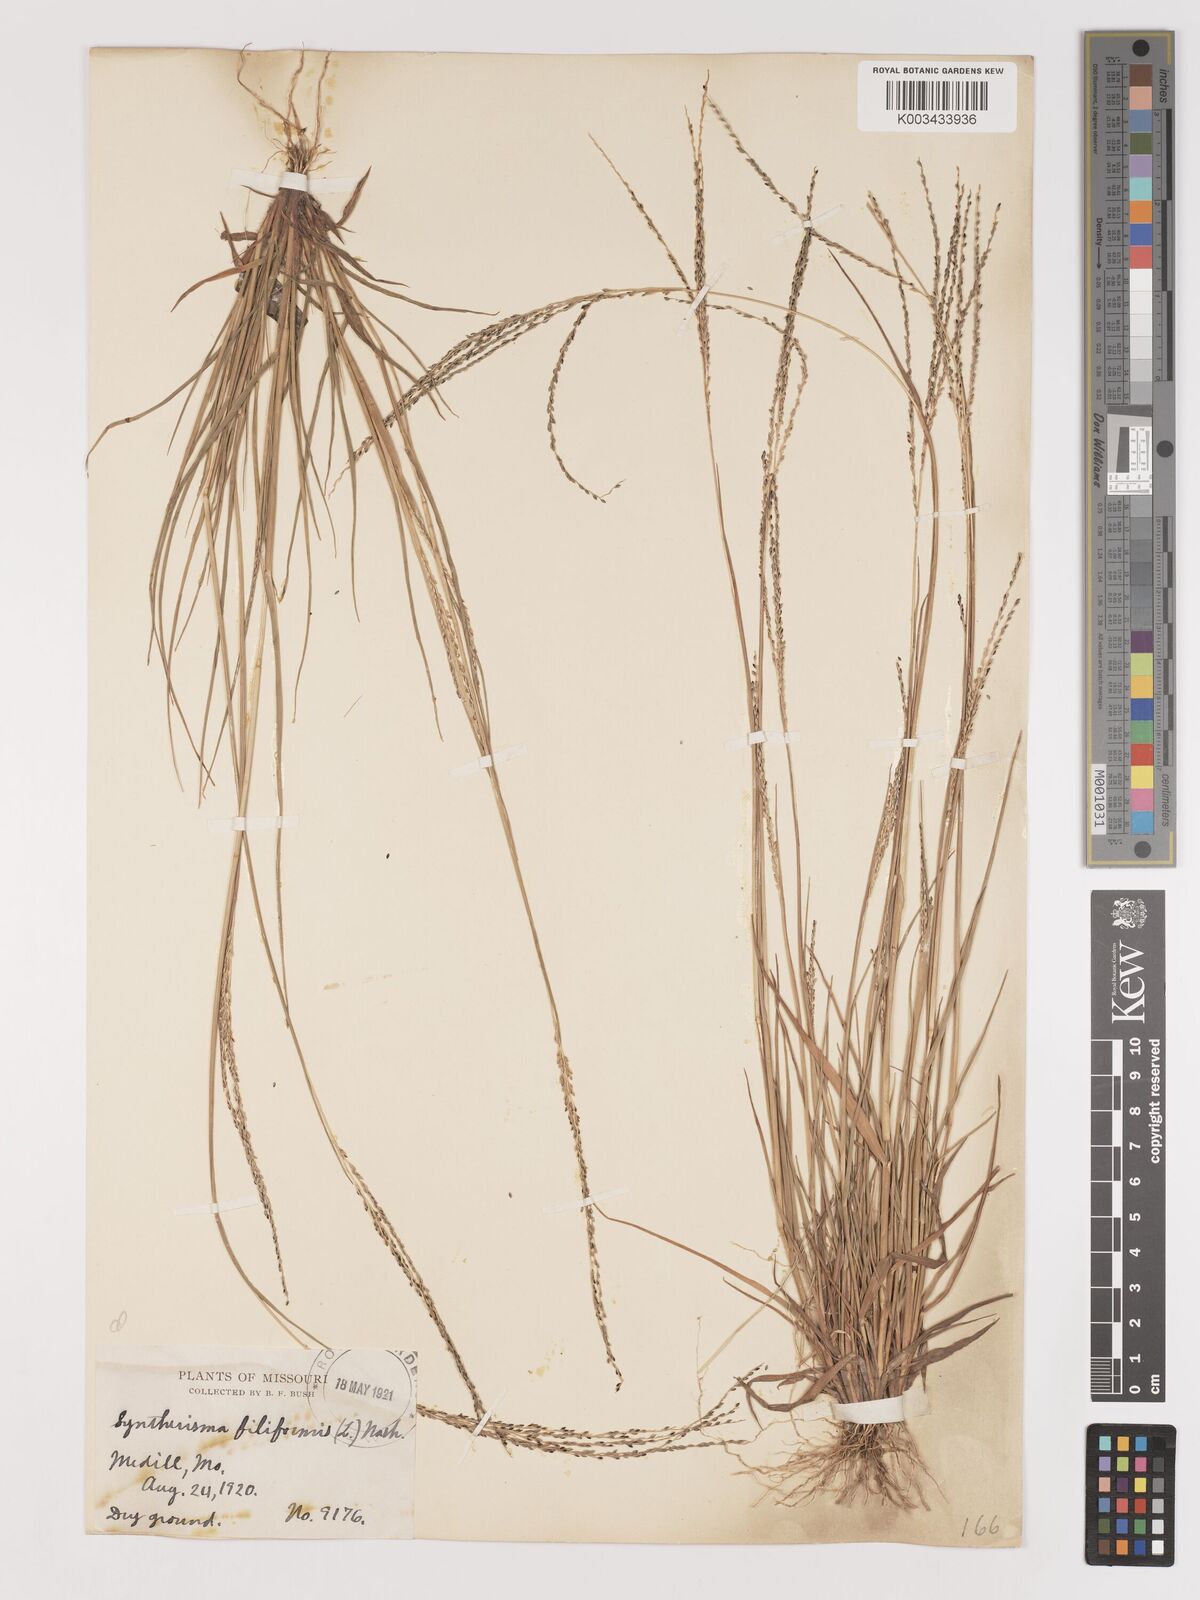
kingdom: Plantae
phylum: Tracheophyta
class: Liliopsida
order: Poales
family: Poaceae
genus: Digitaria
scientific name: Digitaria filiformis
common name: Slender crabgrass
